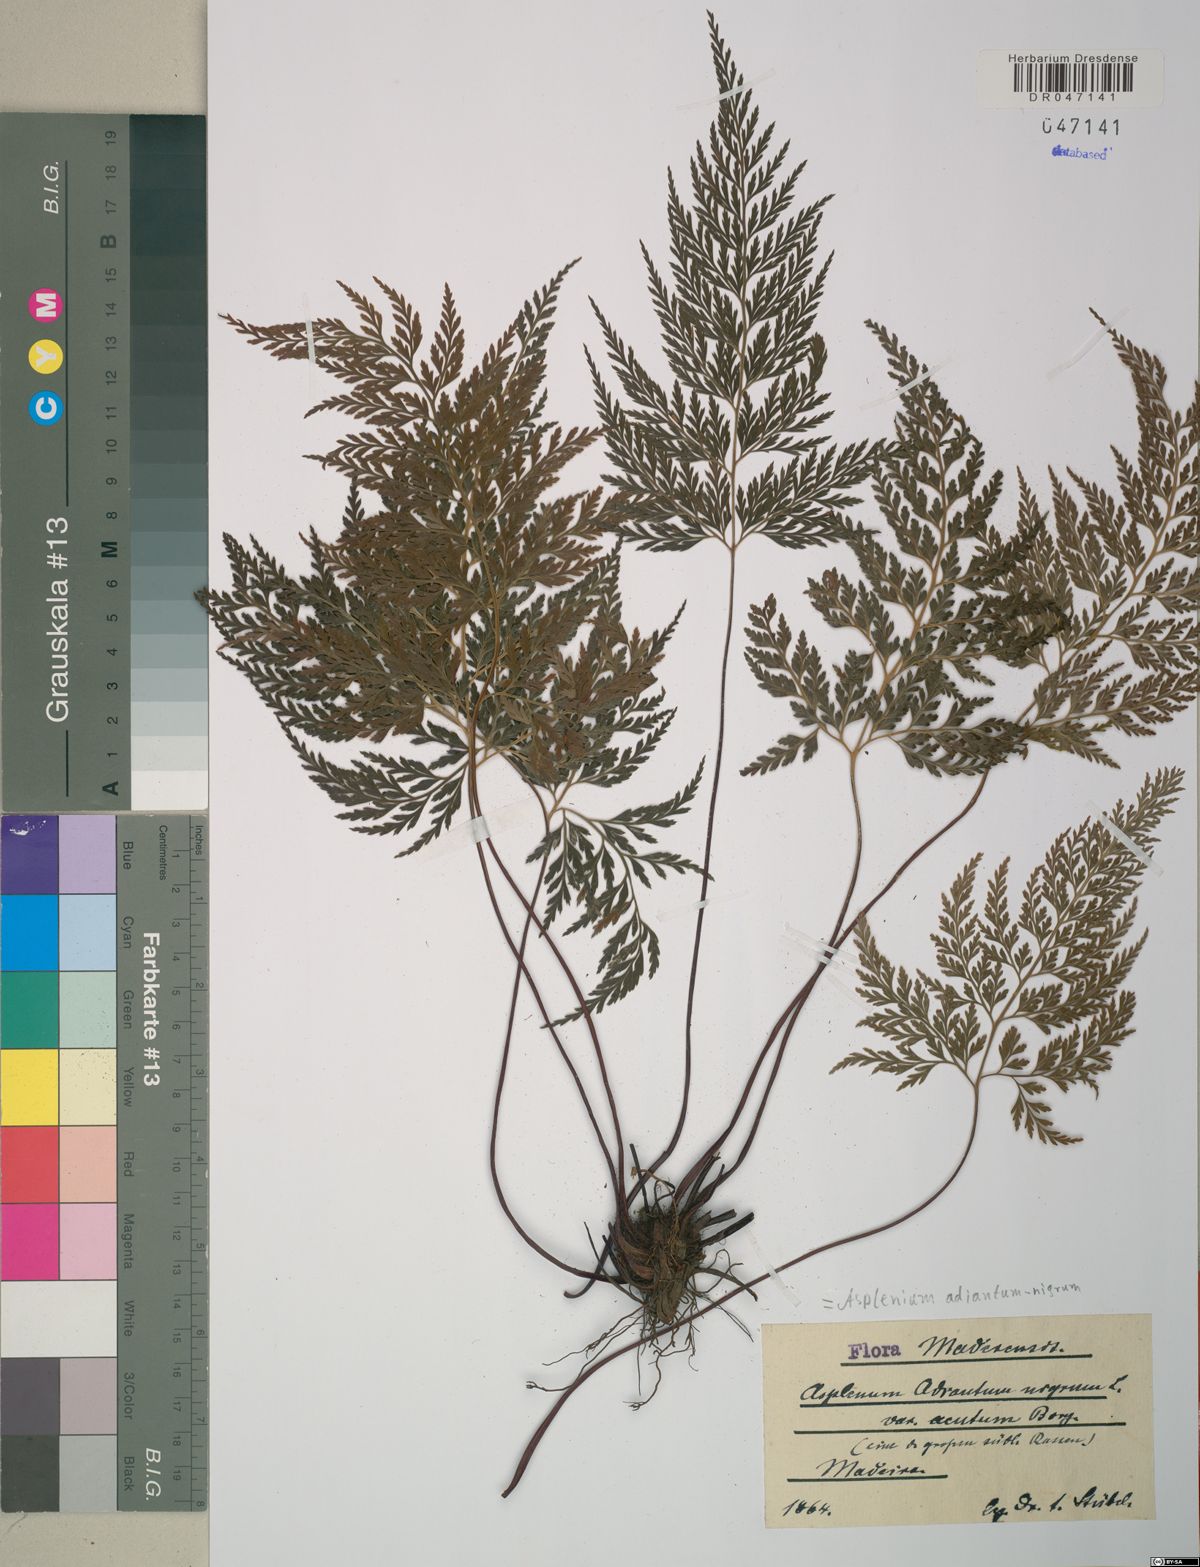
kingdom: Plantae
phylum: Tracheophyta
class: Polypodiopsida
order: Polypodiales
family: Aspleniaceae
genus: Asplenium
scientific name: Asplenium adiantum-nigrum
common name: Black spleenwort
